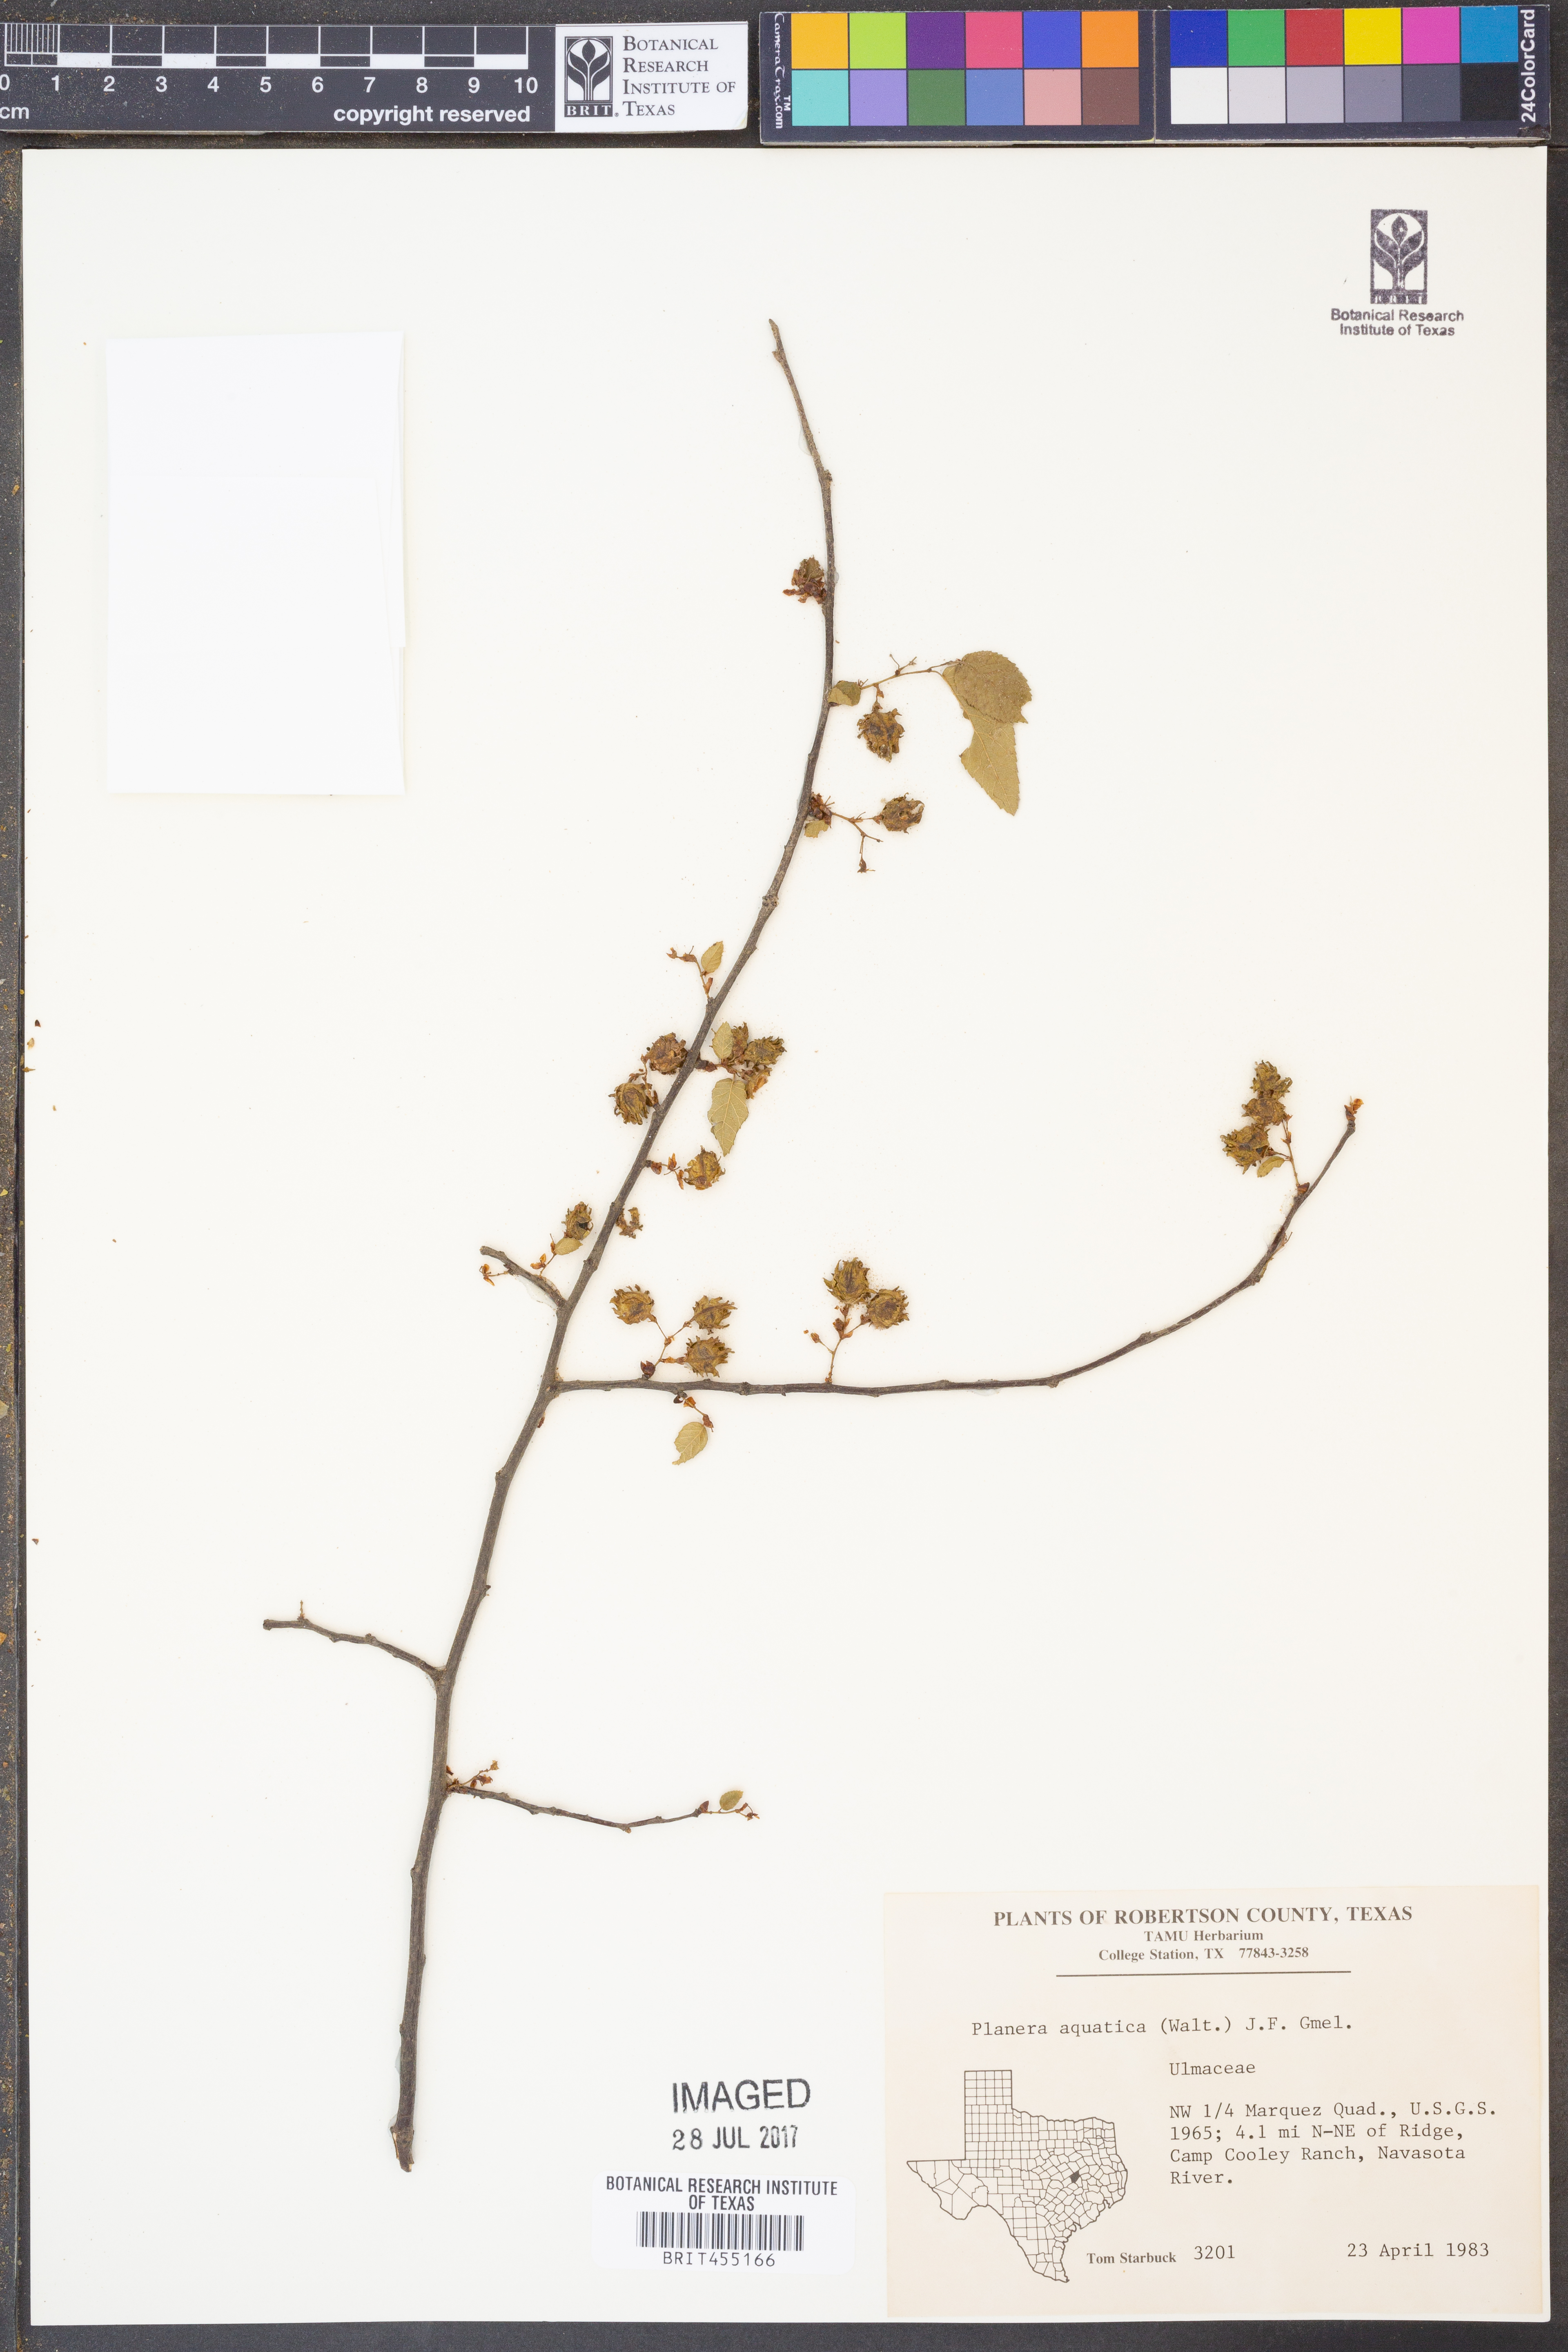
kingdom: Plantae
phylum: Tracheophyta
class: Magnoliopsida
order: Rosales
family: Ulmaceae
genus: Planera
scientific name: Planera aquatica
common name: Water-elm
